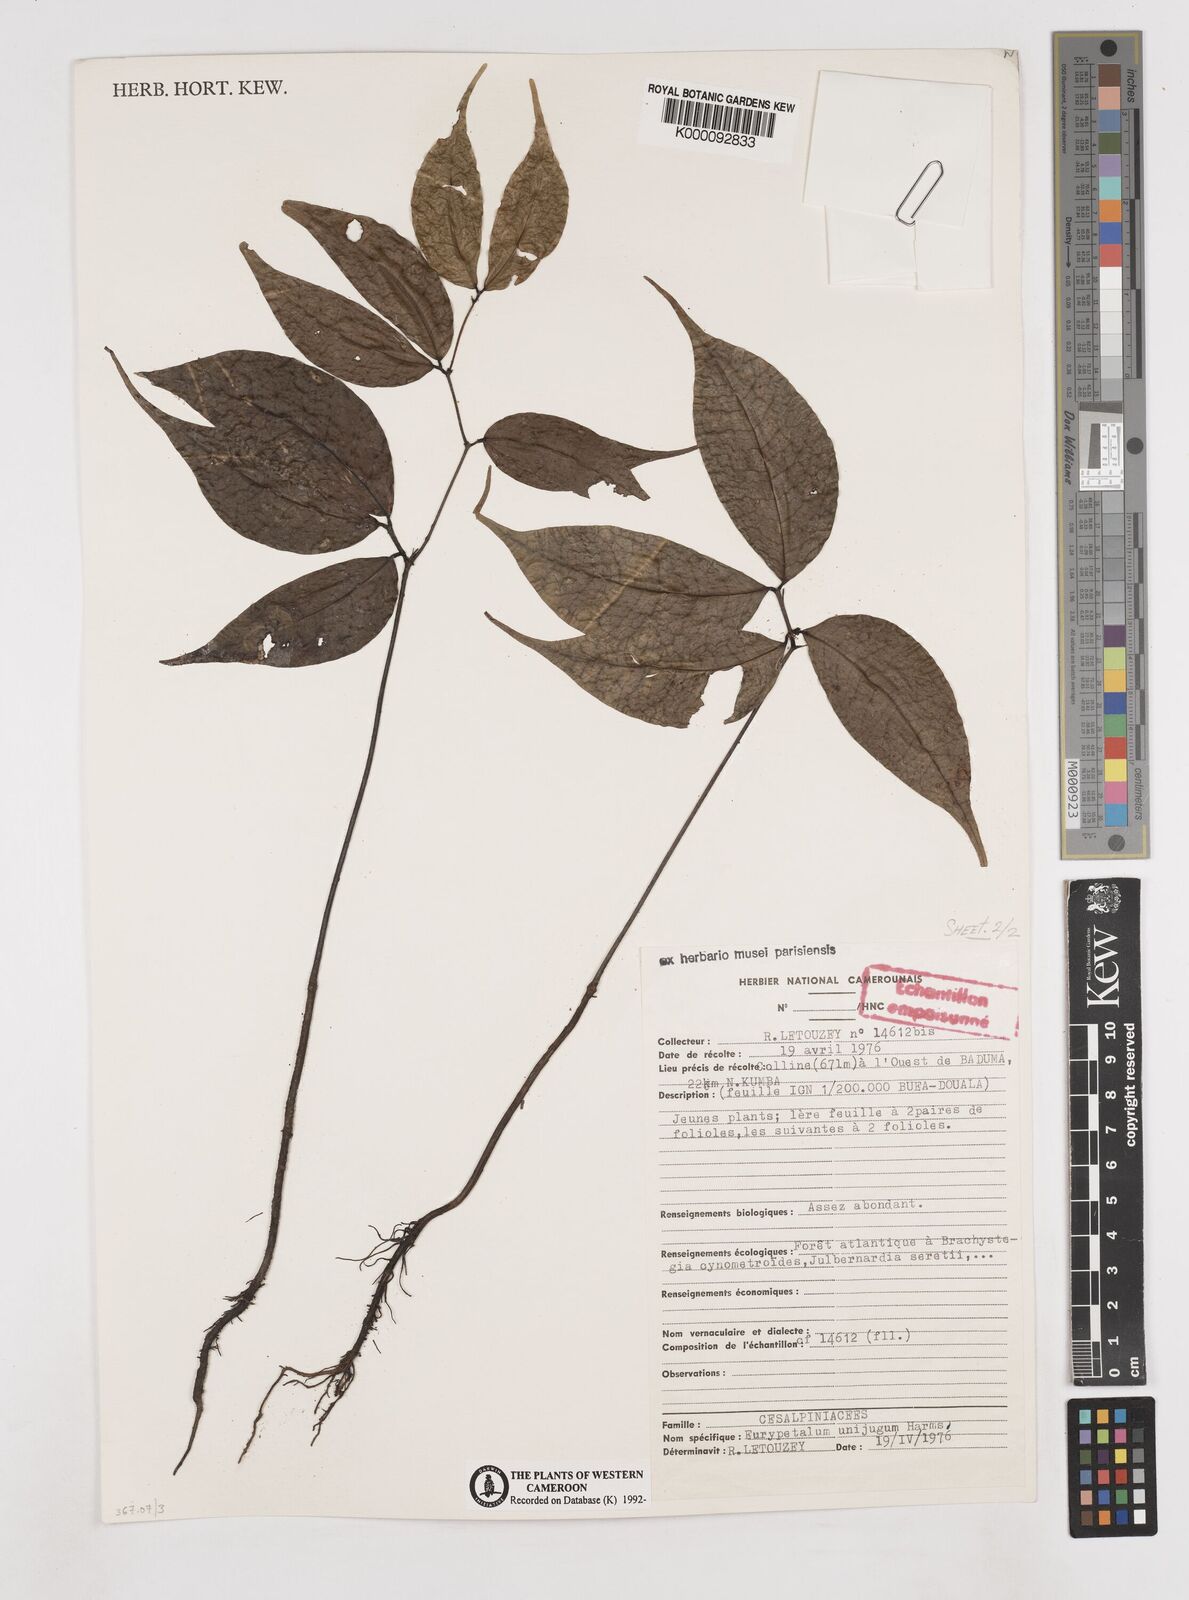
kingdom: Plantae
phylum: Tracheophyta
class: Magnoliopsida
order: Fabales
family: Fabaceae
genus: Eurypetalum
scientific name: Eurypetalum unijugum
